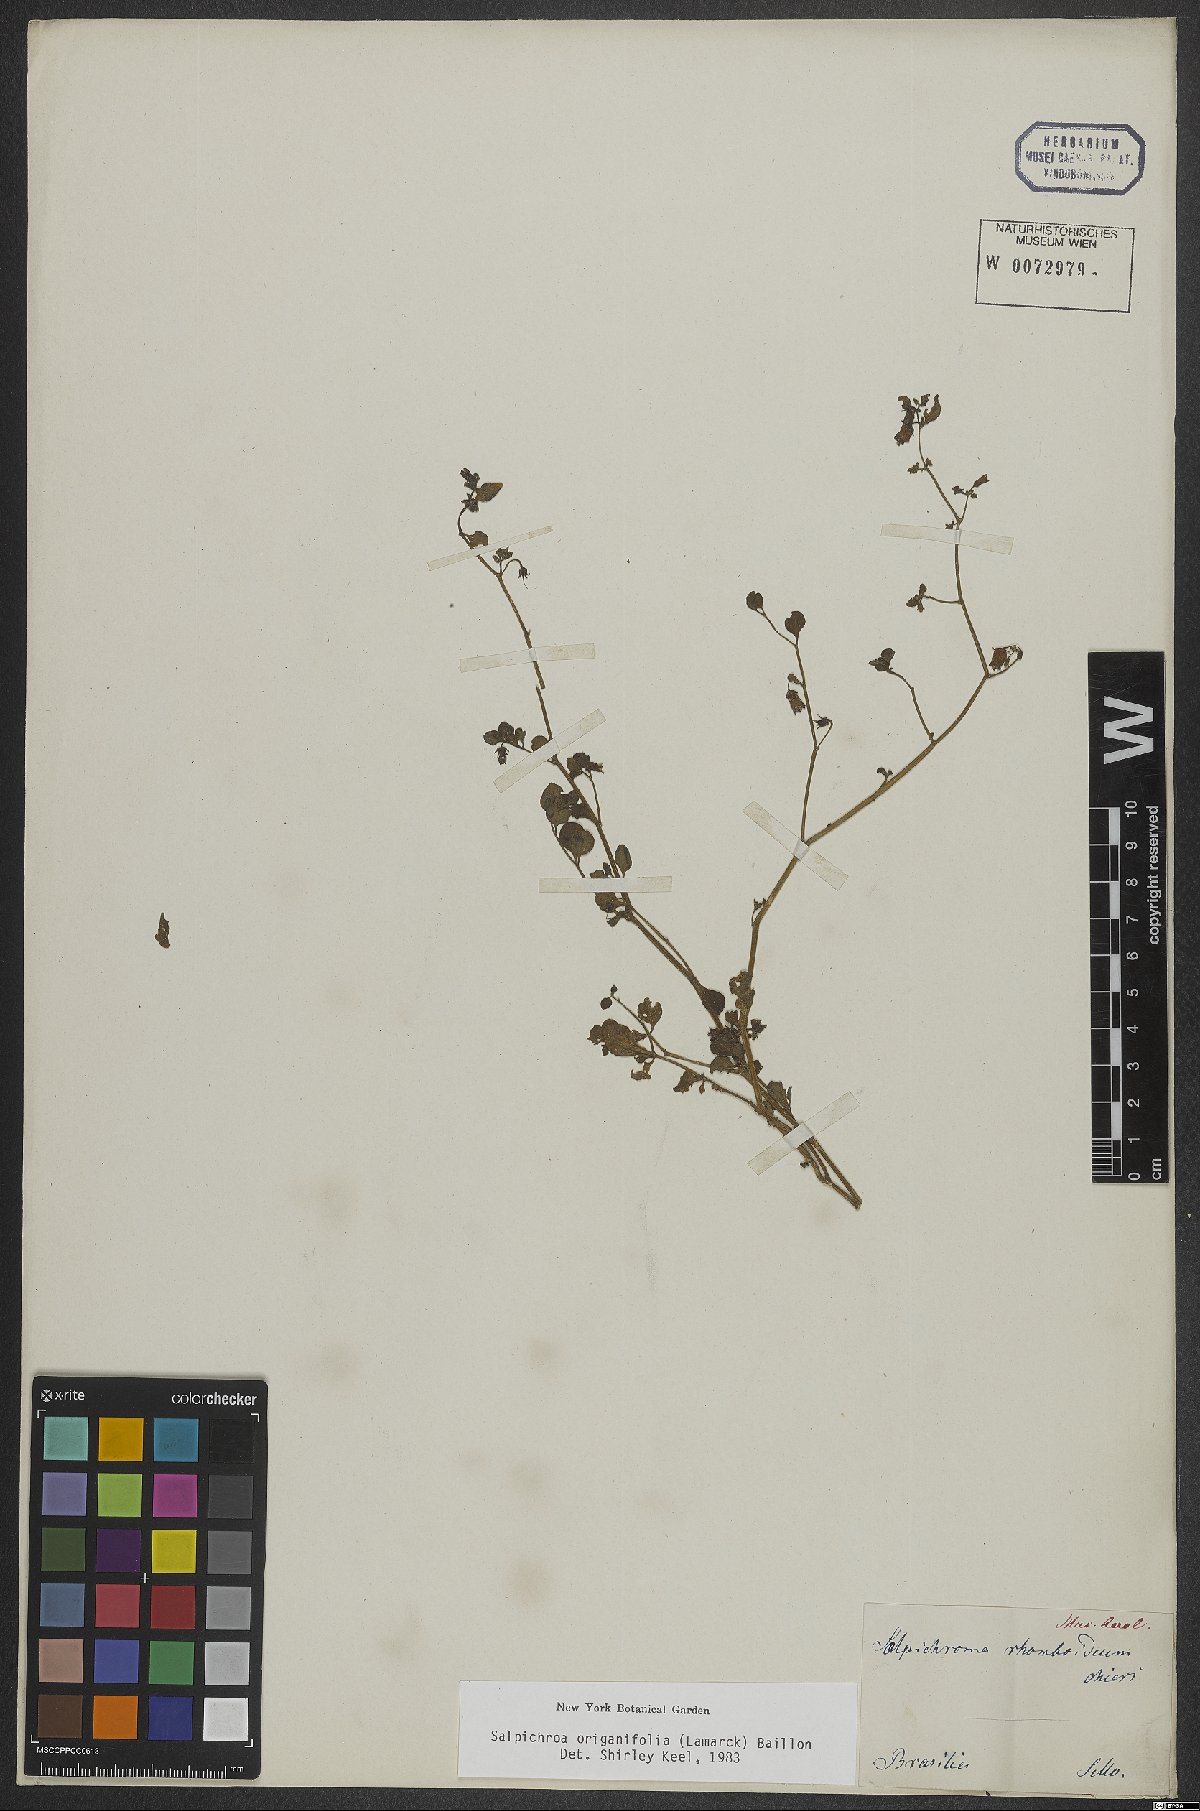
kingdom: Plantae
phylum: Tracheophyta
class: Magnoliopsida
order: Solanales
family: Solanaceae
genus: Salpichroa
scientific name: Salpichroa origanifolia
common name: Lily-of-the-valley-vine
